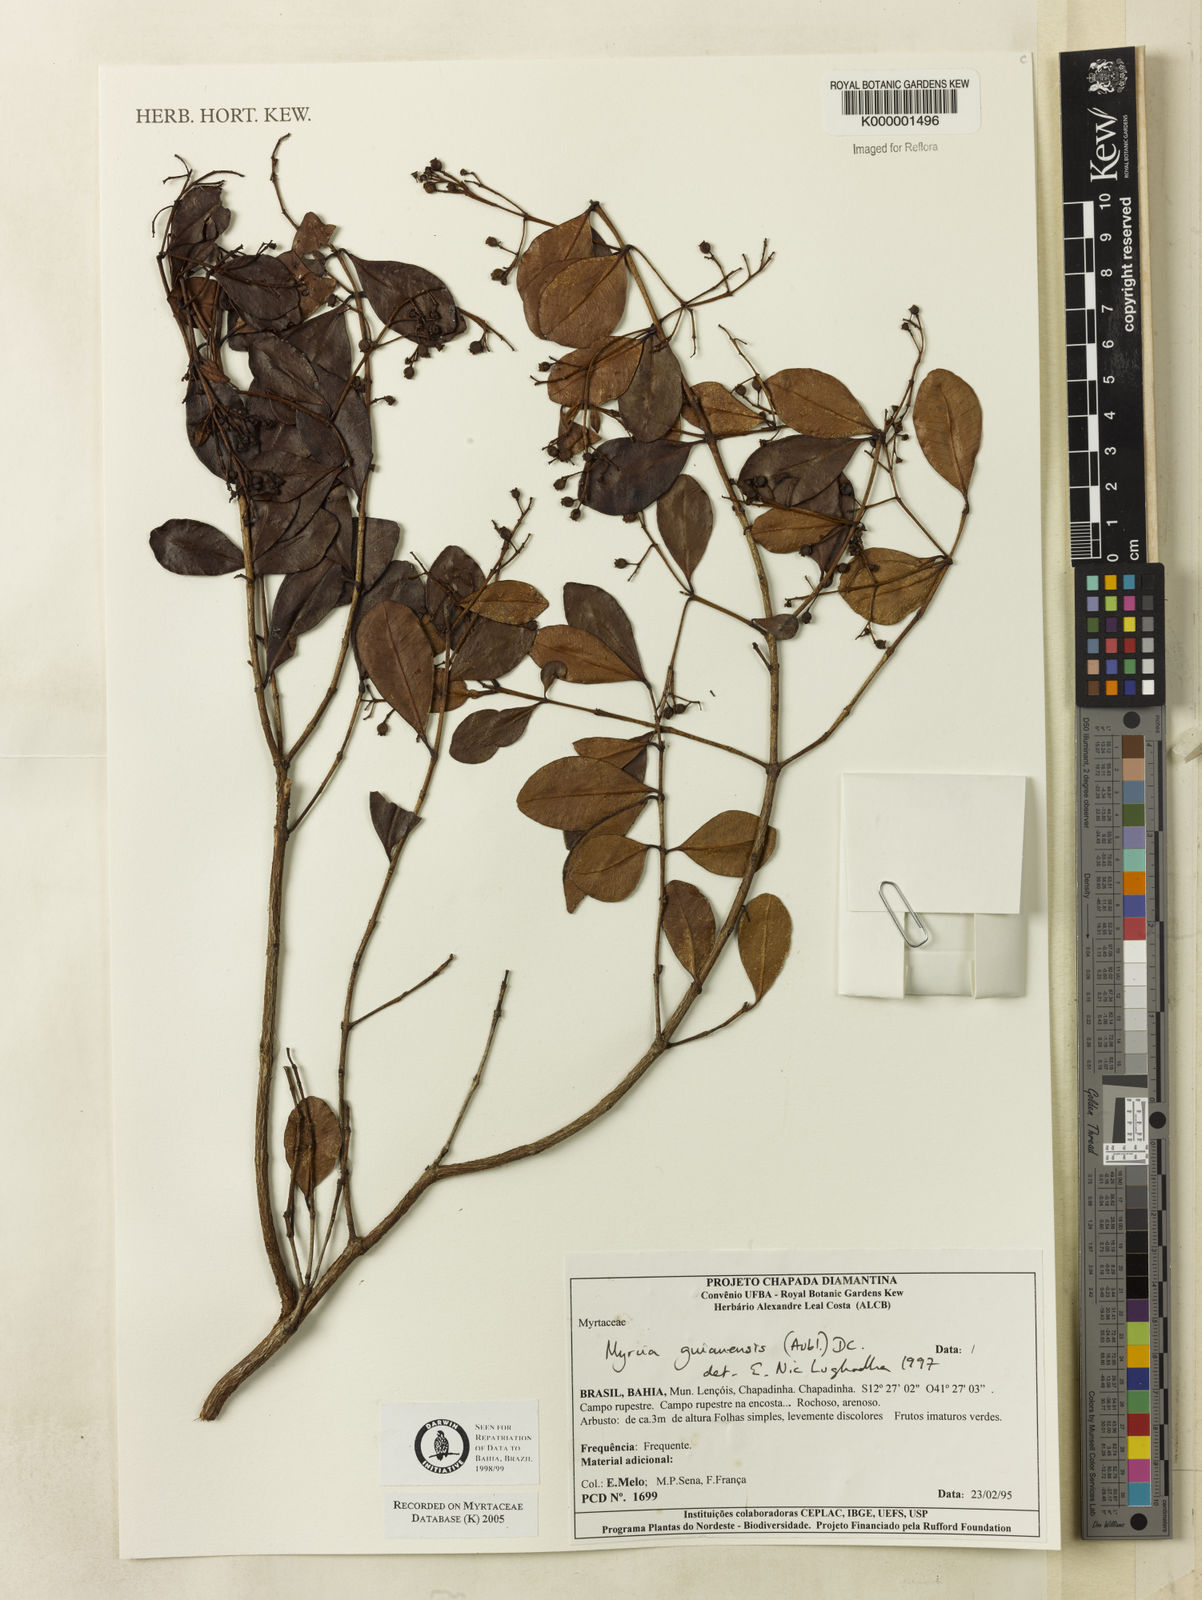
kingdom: Plantae
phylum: Tracheophyta
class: Magnoliopsida
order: Myrtales
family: Myrtaceae
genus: Myrcia
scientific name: Myrcia guianensis
